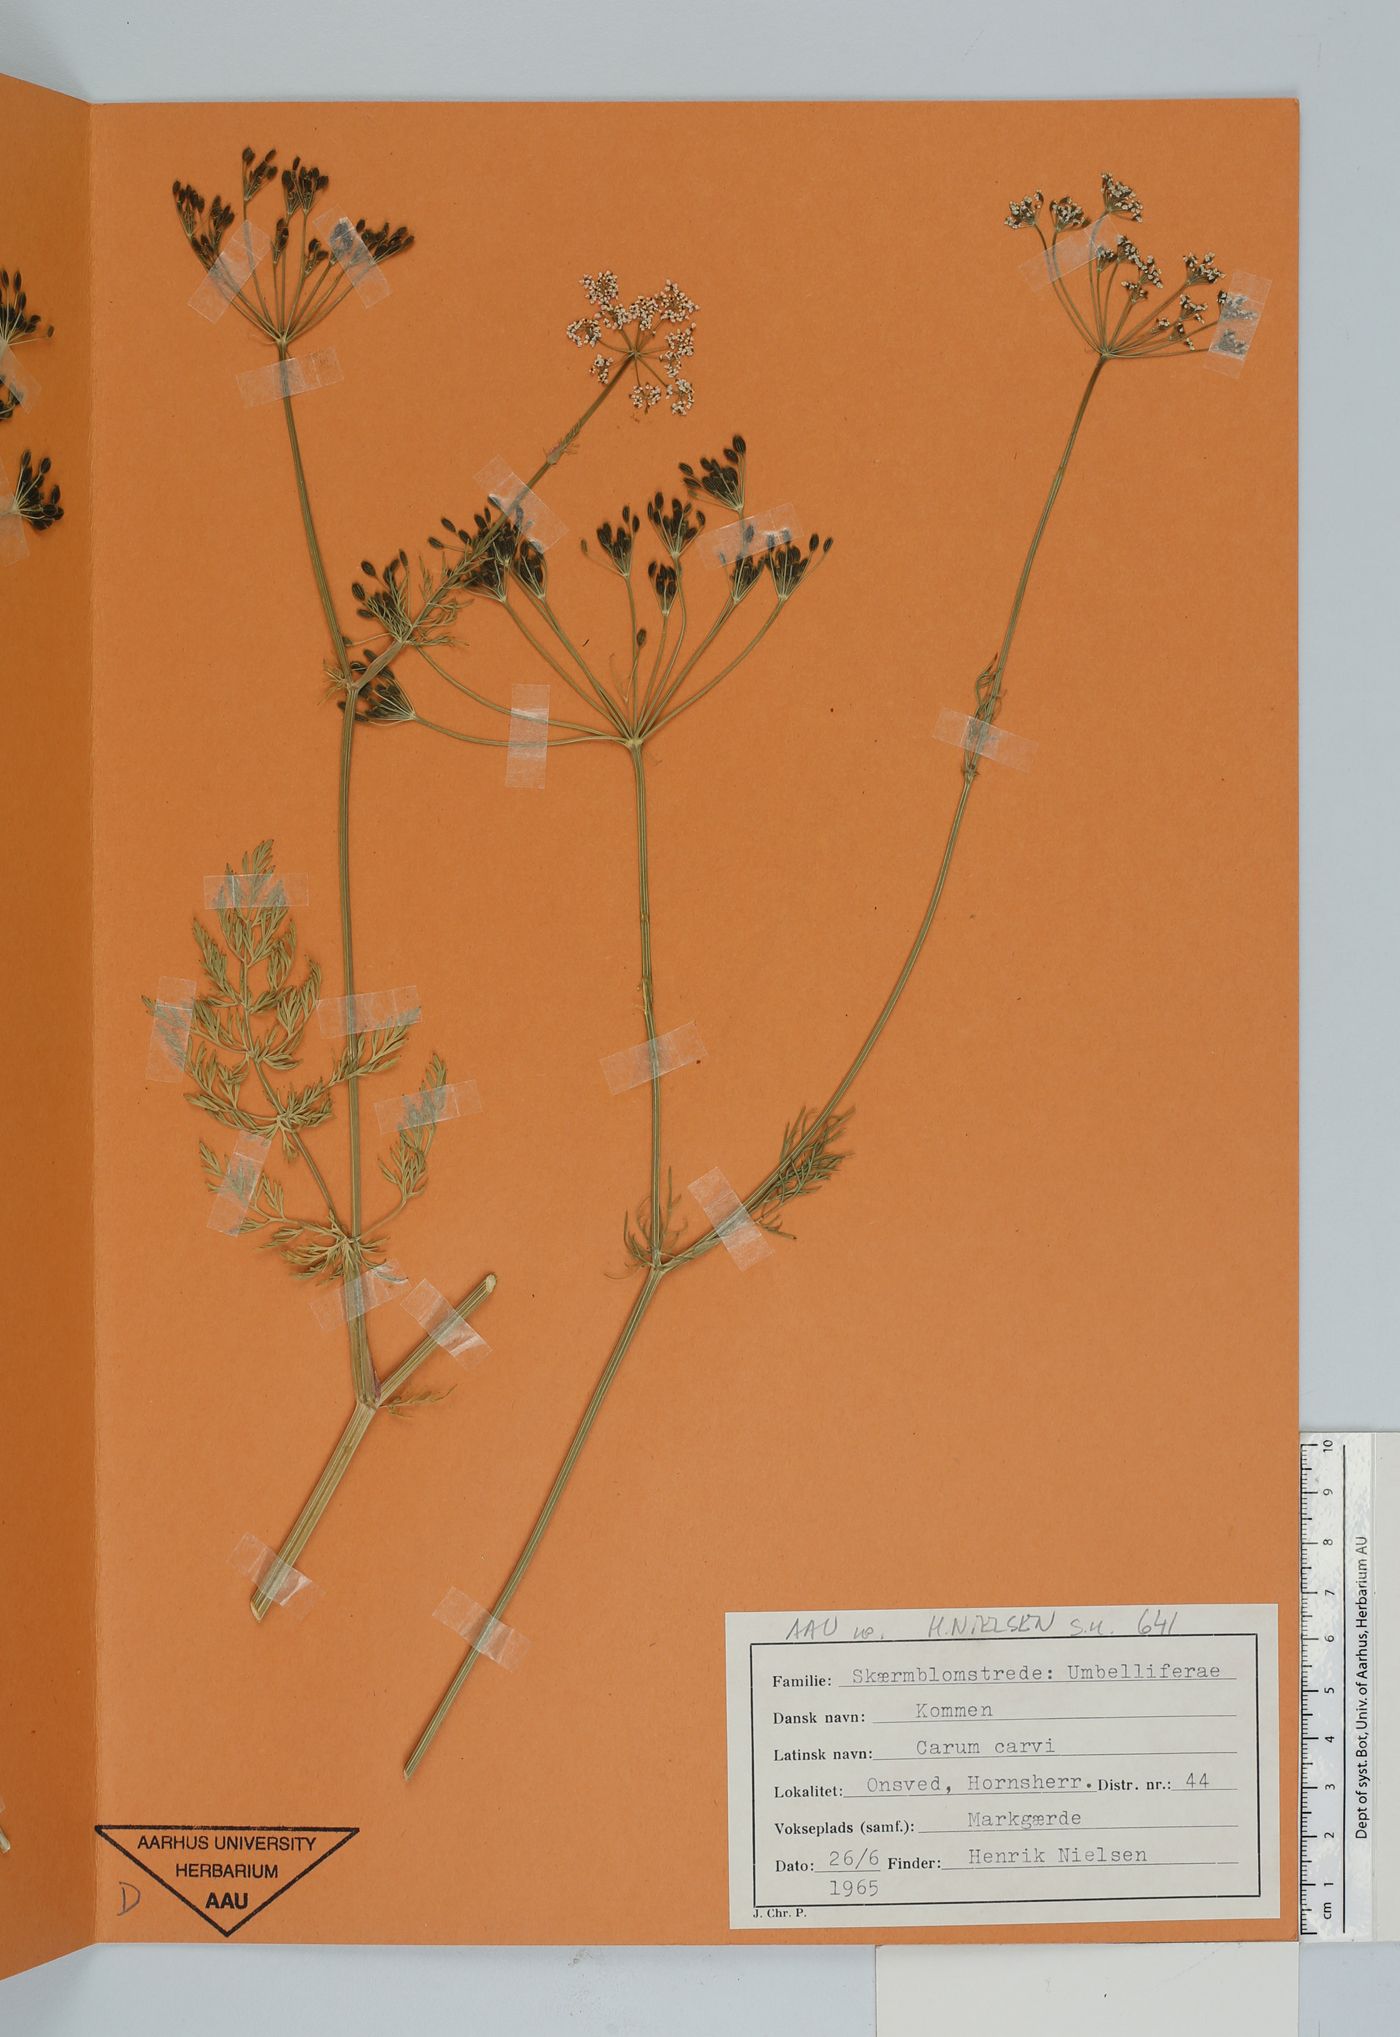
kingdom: Plantae
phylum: Tracheophyta
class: Magnoliopsida
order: Apiales
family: Apiaceae
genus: Carum
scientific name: Carum carvi
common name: Caraway
